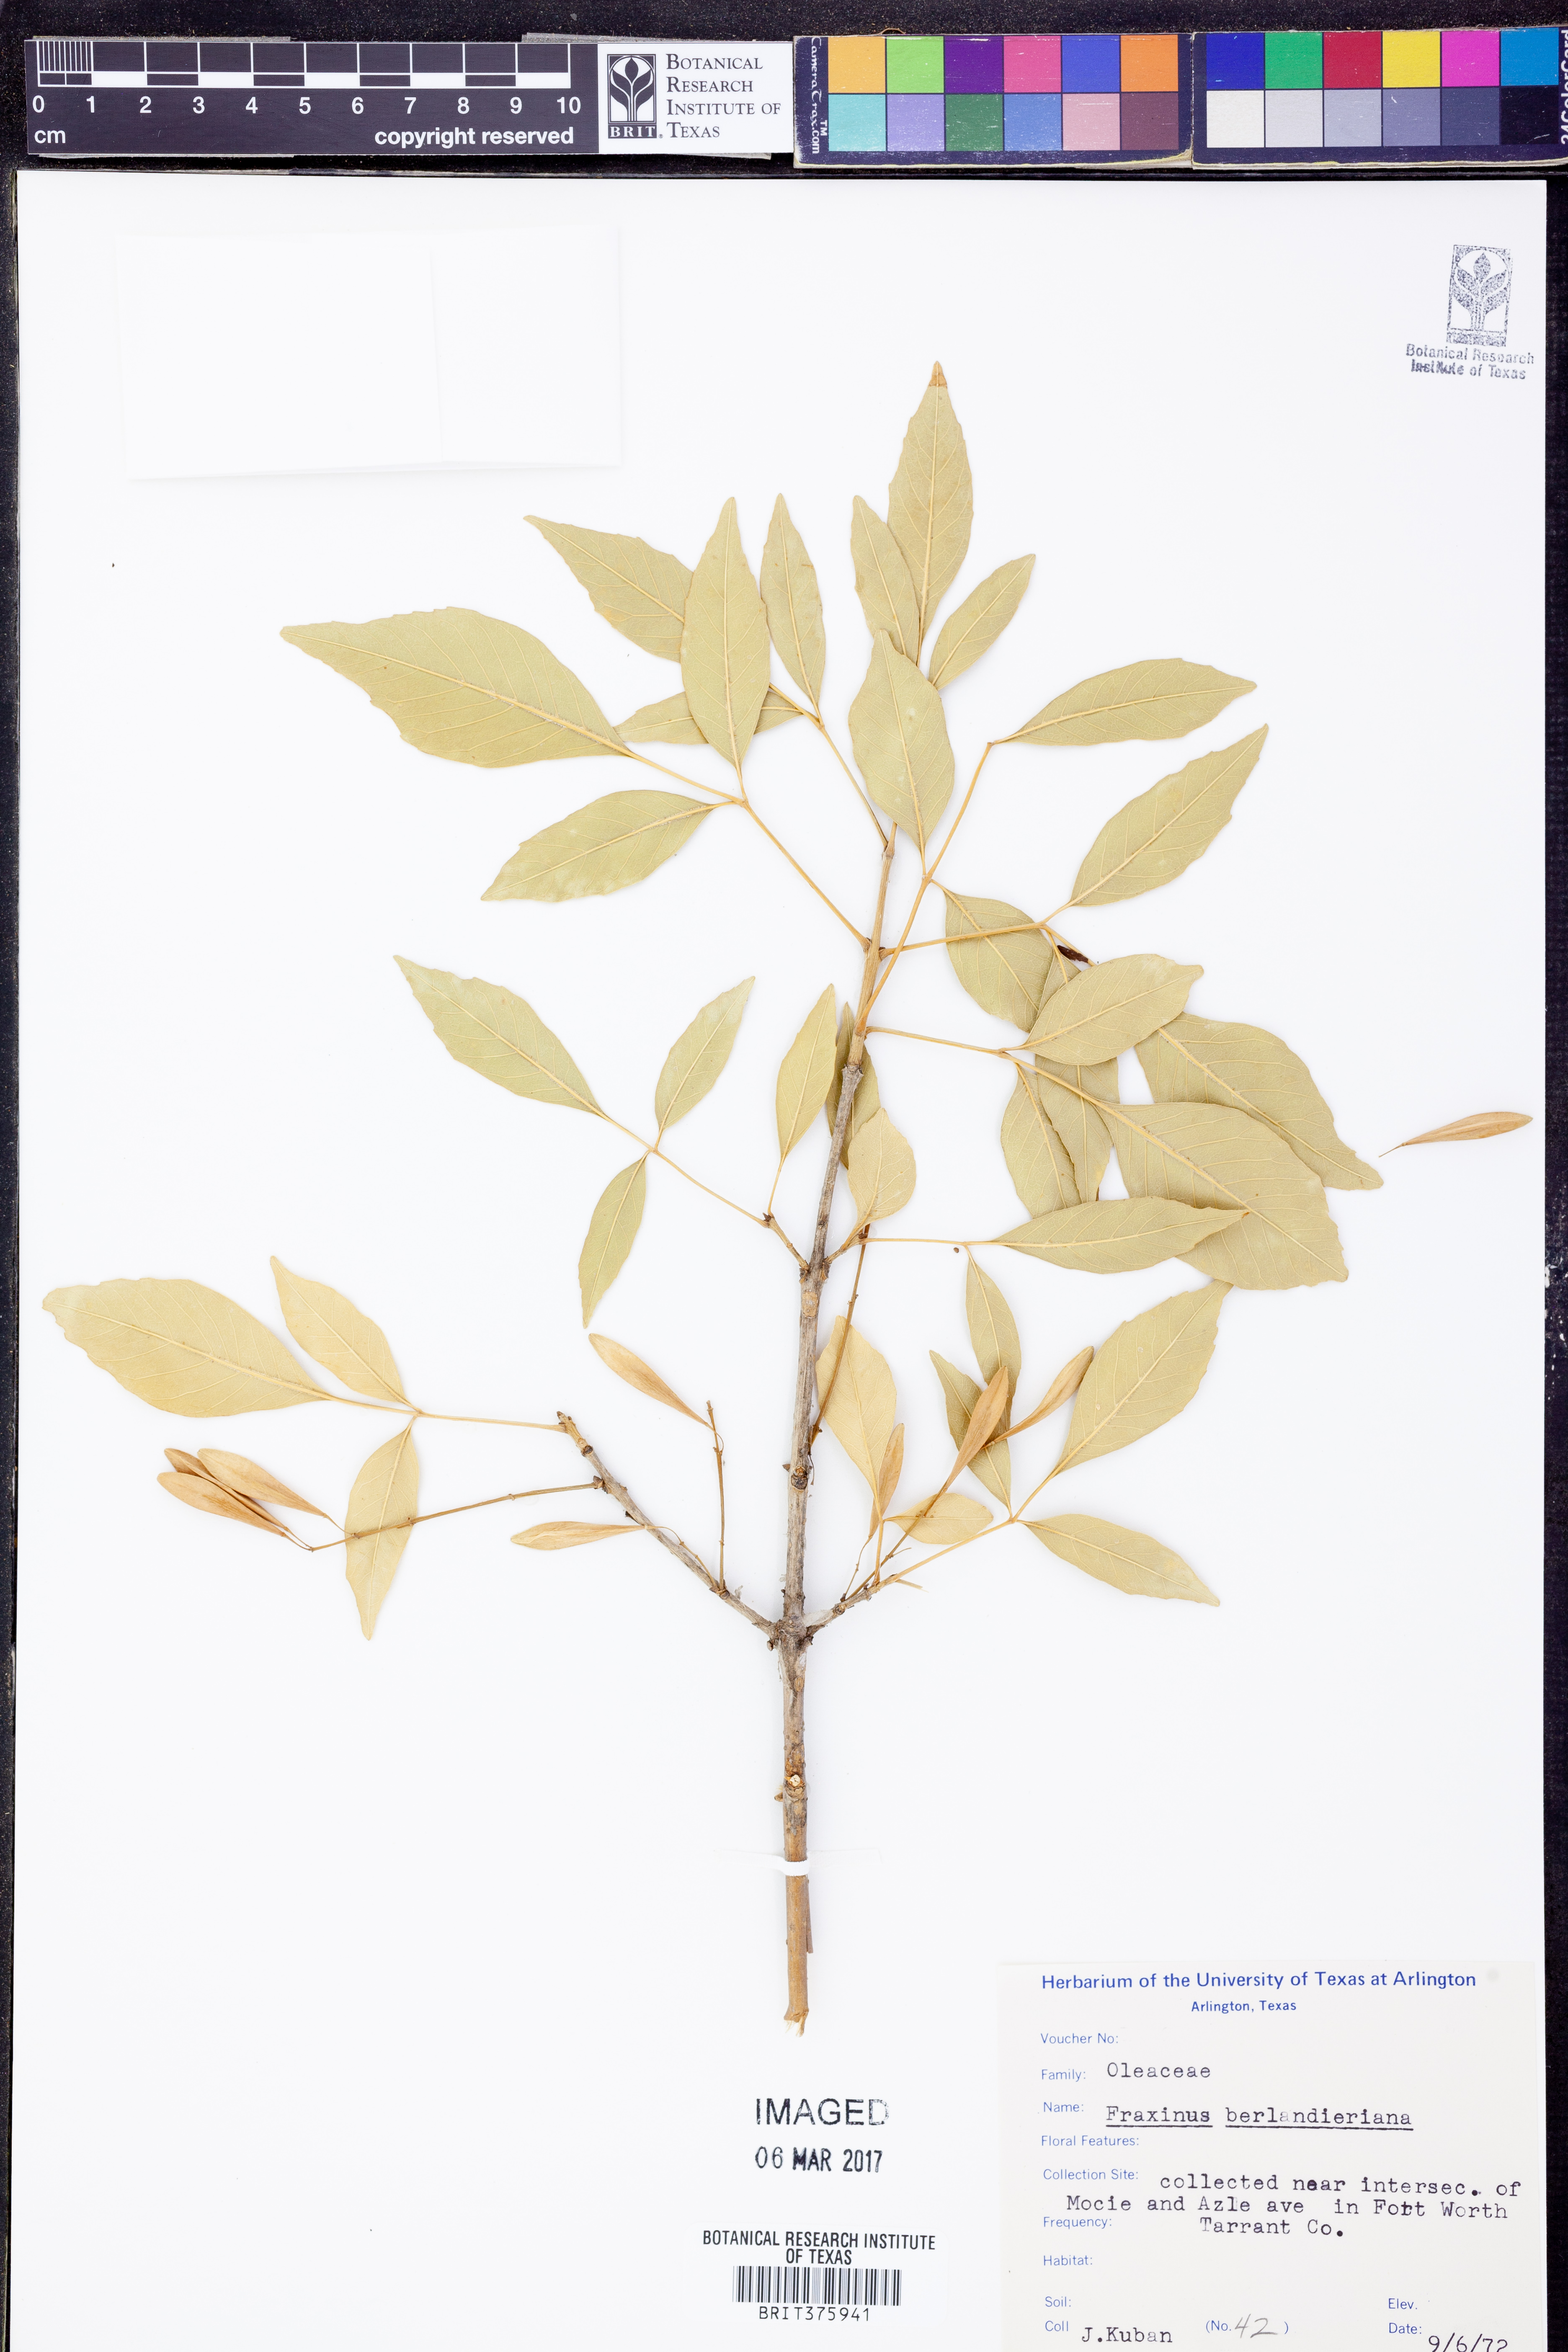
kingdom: Plantae
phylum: Tracheophyta
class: Magnoliopsida
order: Lamiales
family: Oleaceae
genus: Fraxinus
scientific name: Fraxinus berlandieriana
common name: Berlandier ash
